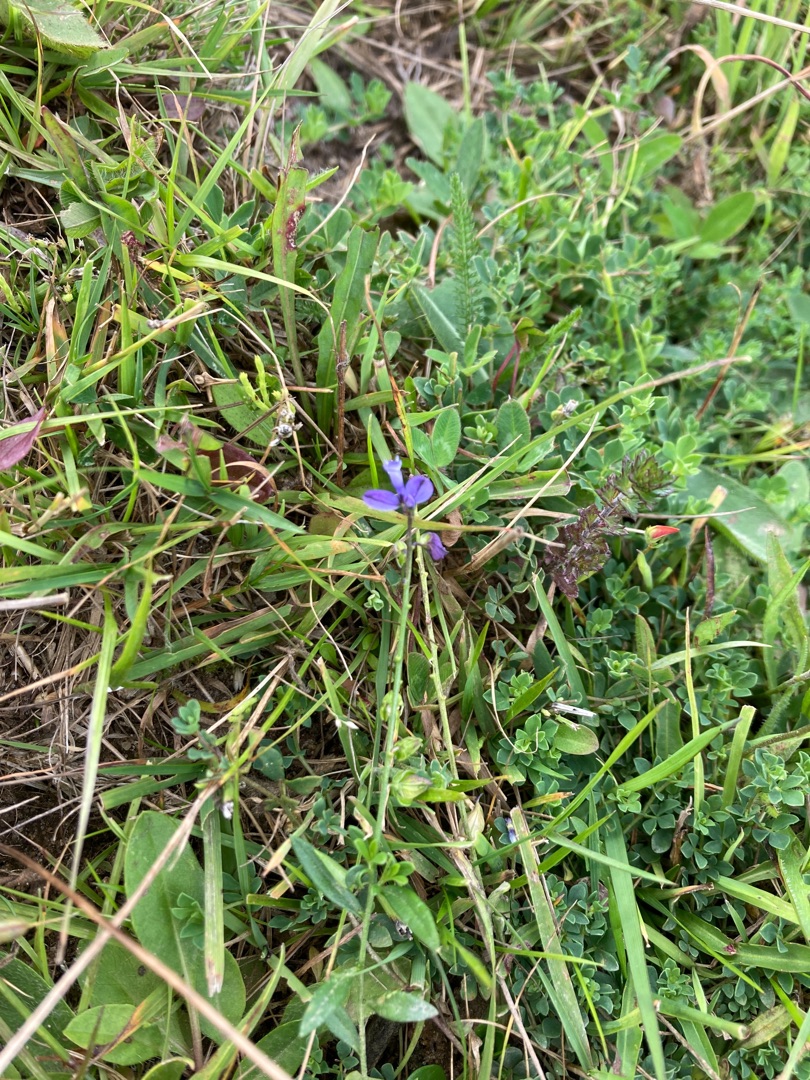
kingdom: Plantae
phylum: Tracheophyta
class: Magnoliopsida
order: Fabales
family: Polygalaceae
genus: Polygala
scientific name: Polygala vulgaris
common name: Almindelig mælkeurt
